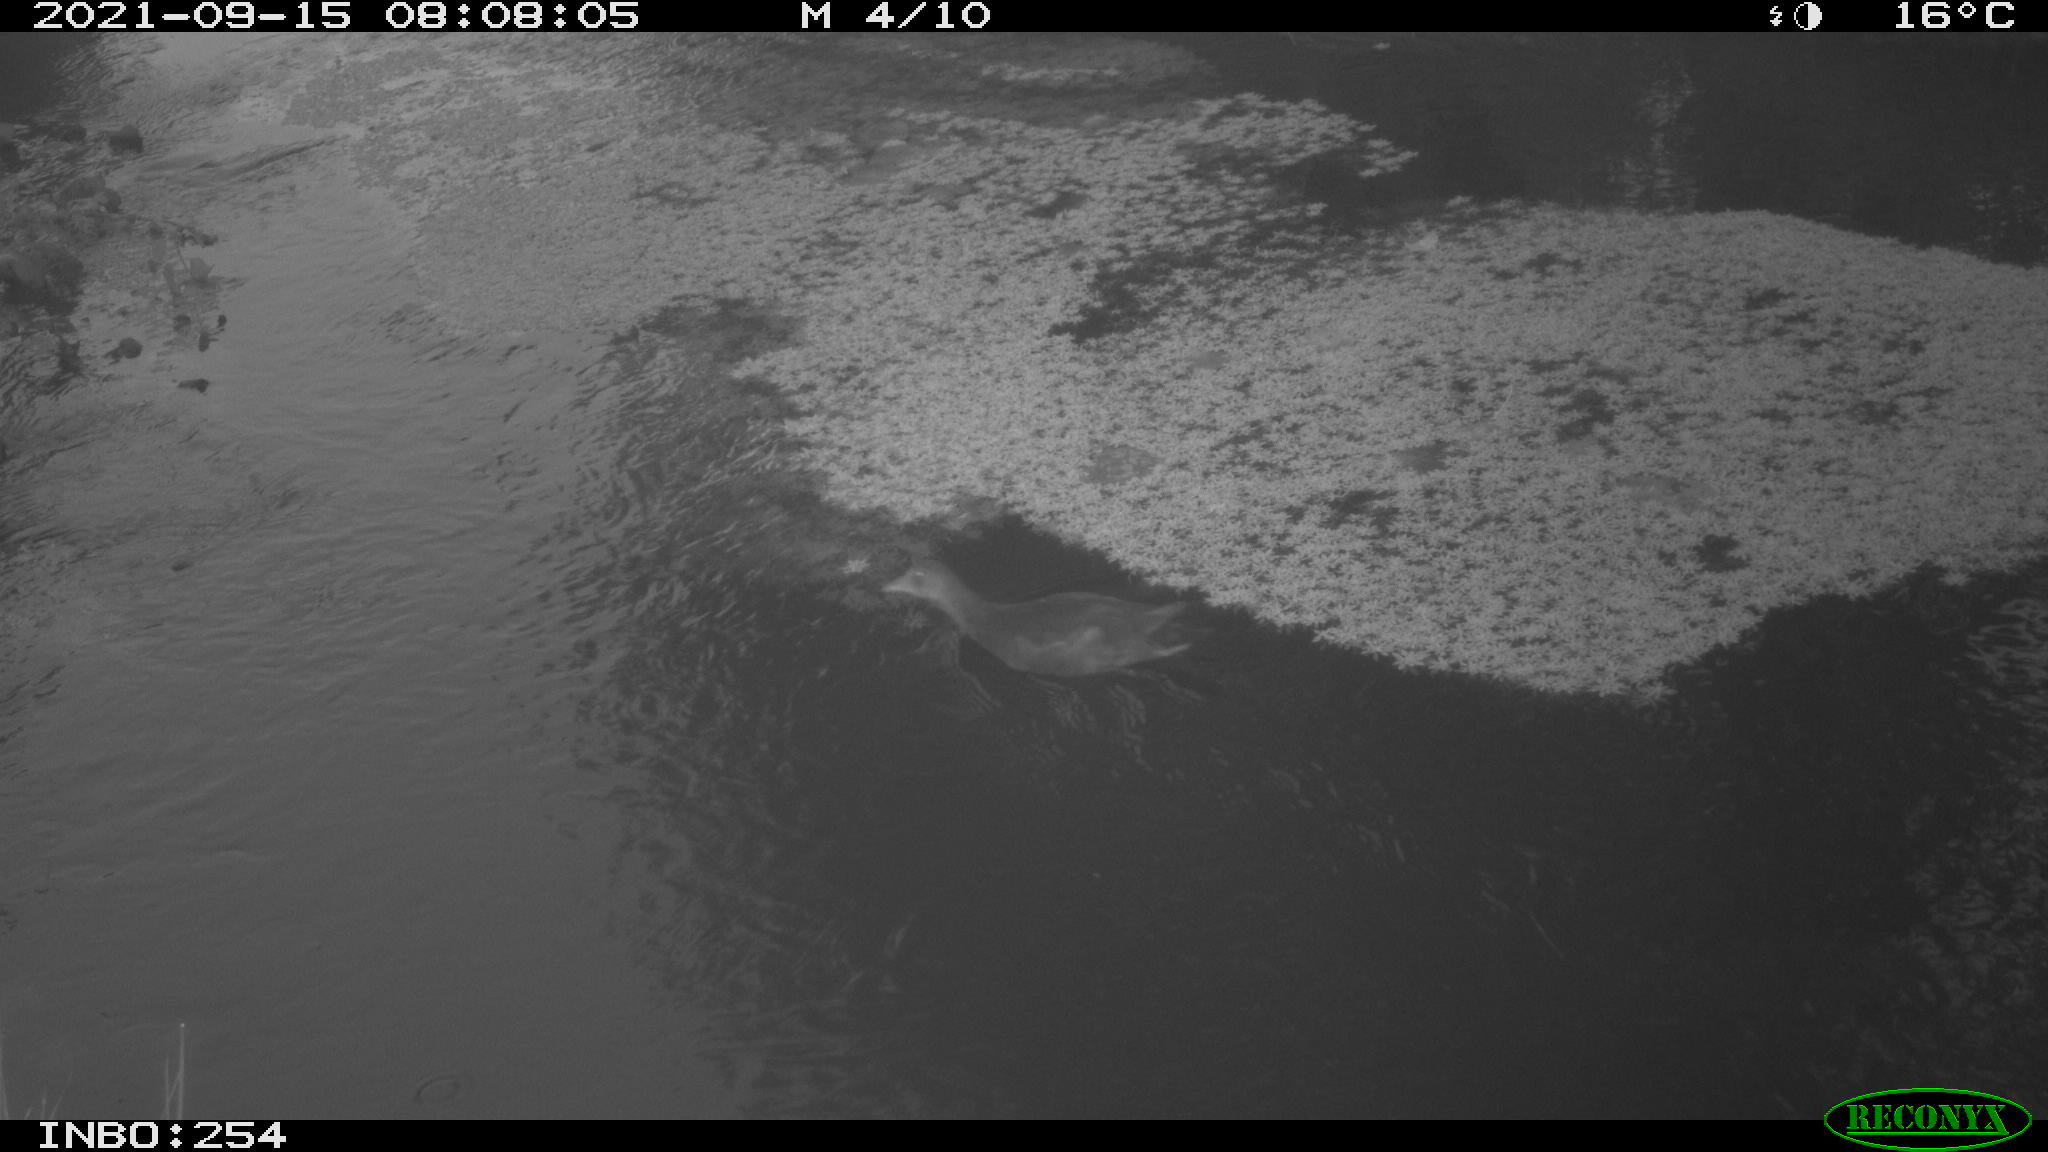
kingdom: Animalia
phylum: Chordata
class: Aves
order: Gruiformes
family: Rallidae
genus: Gallinula
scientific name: Gallinula chloropus
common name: Common moorhen
